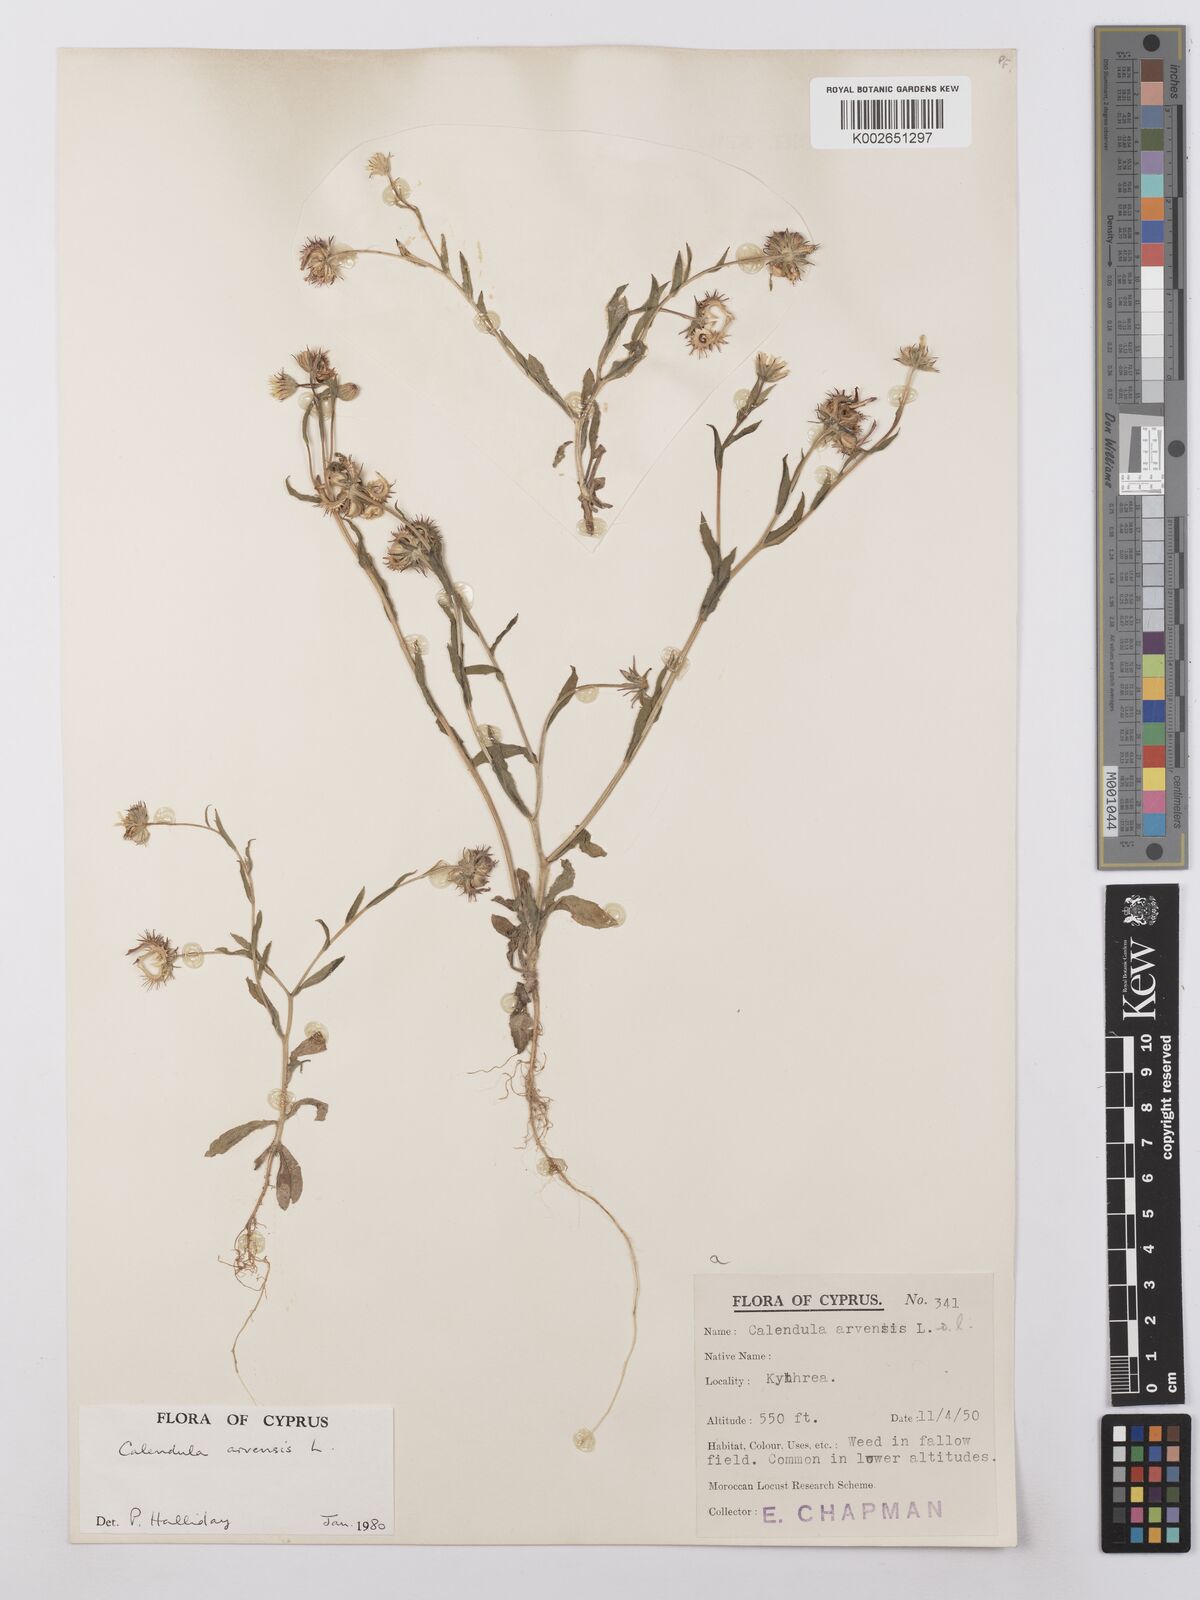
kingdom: Plantae
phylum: Tracheophyta
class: Magnoliopsida
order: Asterales
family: Asteraceae
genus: Calendula
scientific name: Calendula arvensis
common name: Field marigold
